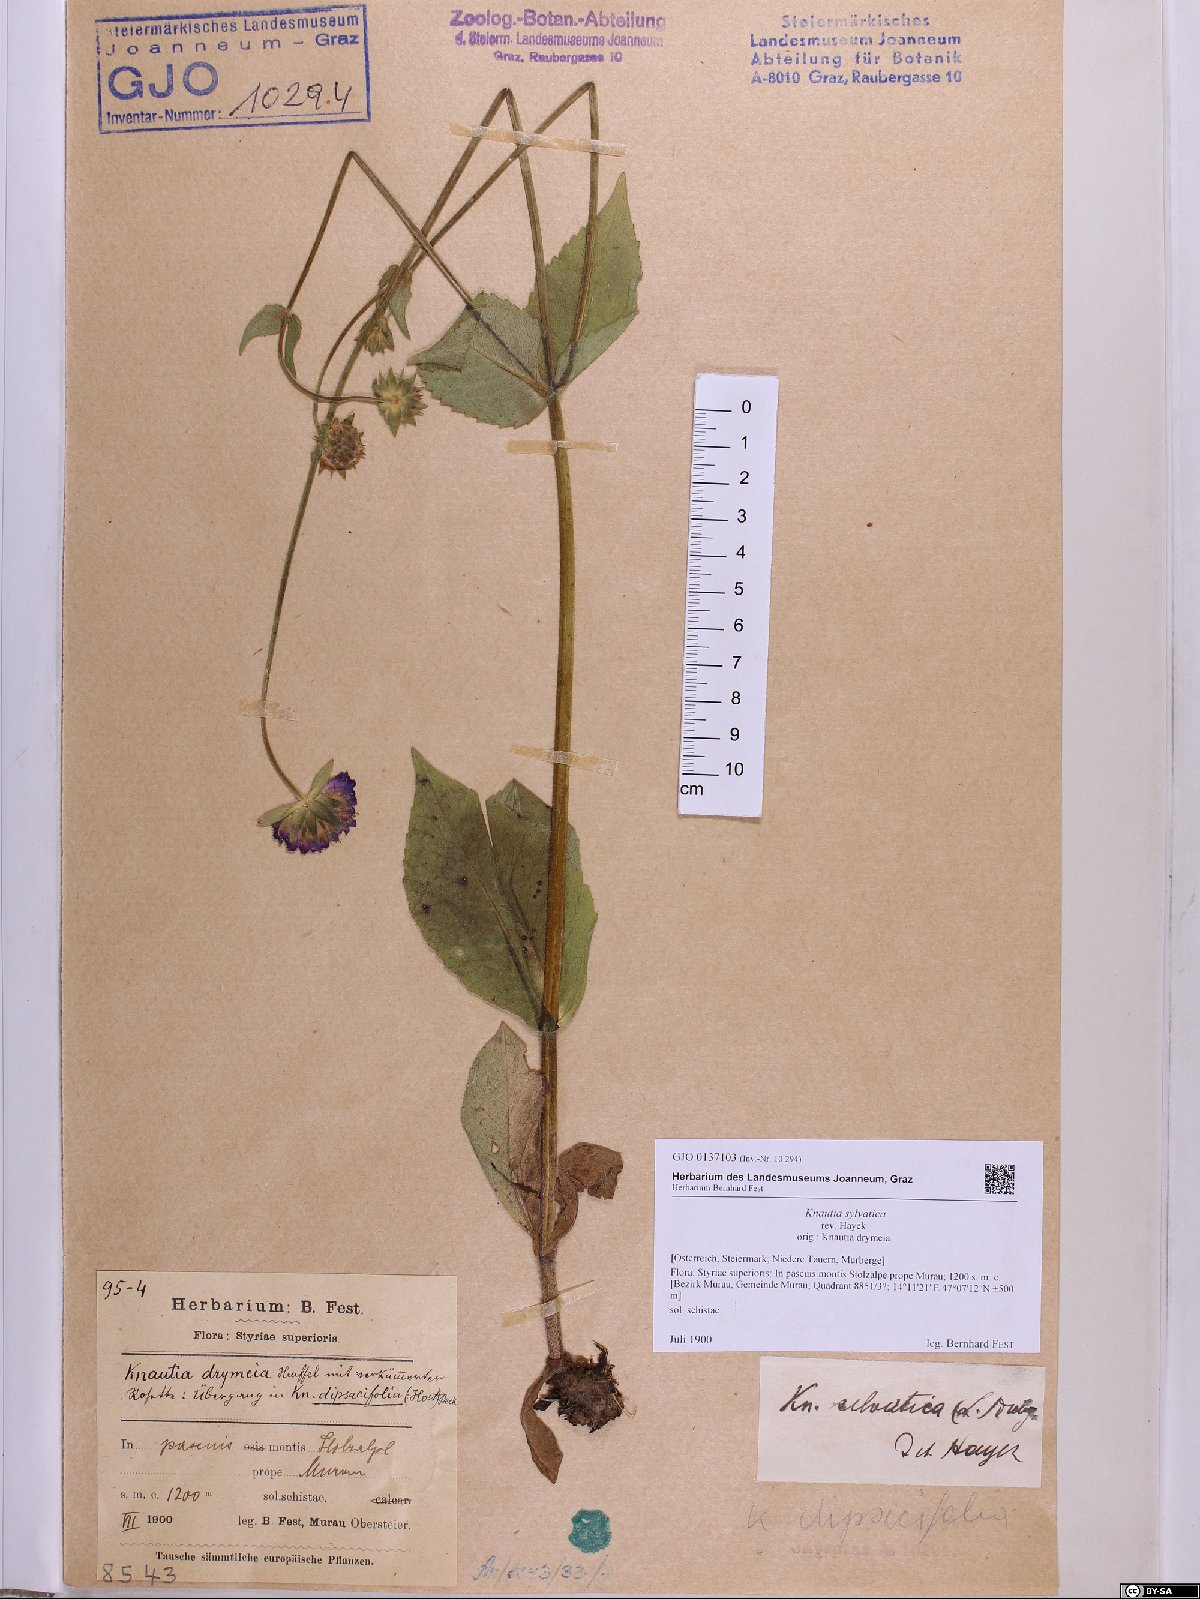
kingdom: Plantae
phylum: Tracheophyta
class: Magnoliopsida
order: Dipsacales
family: Caprifoliaceae
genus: Knautia
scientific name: Knautia drymeia
